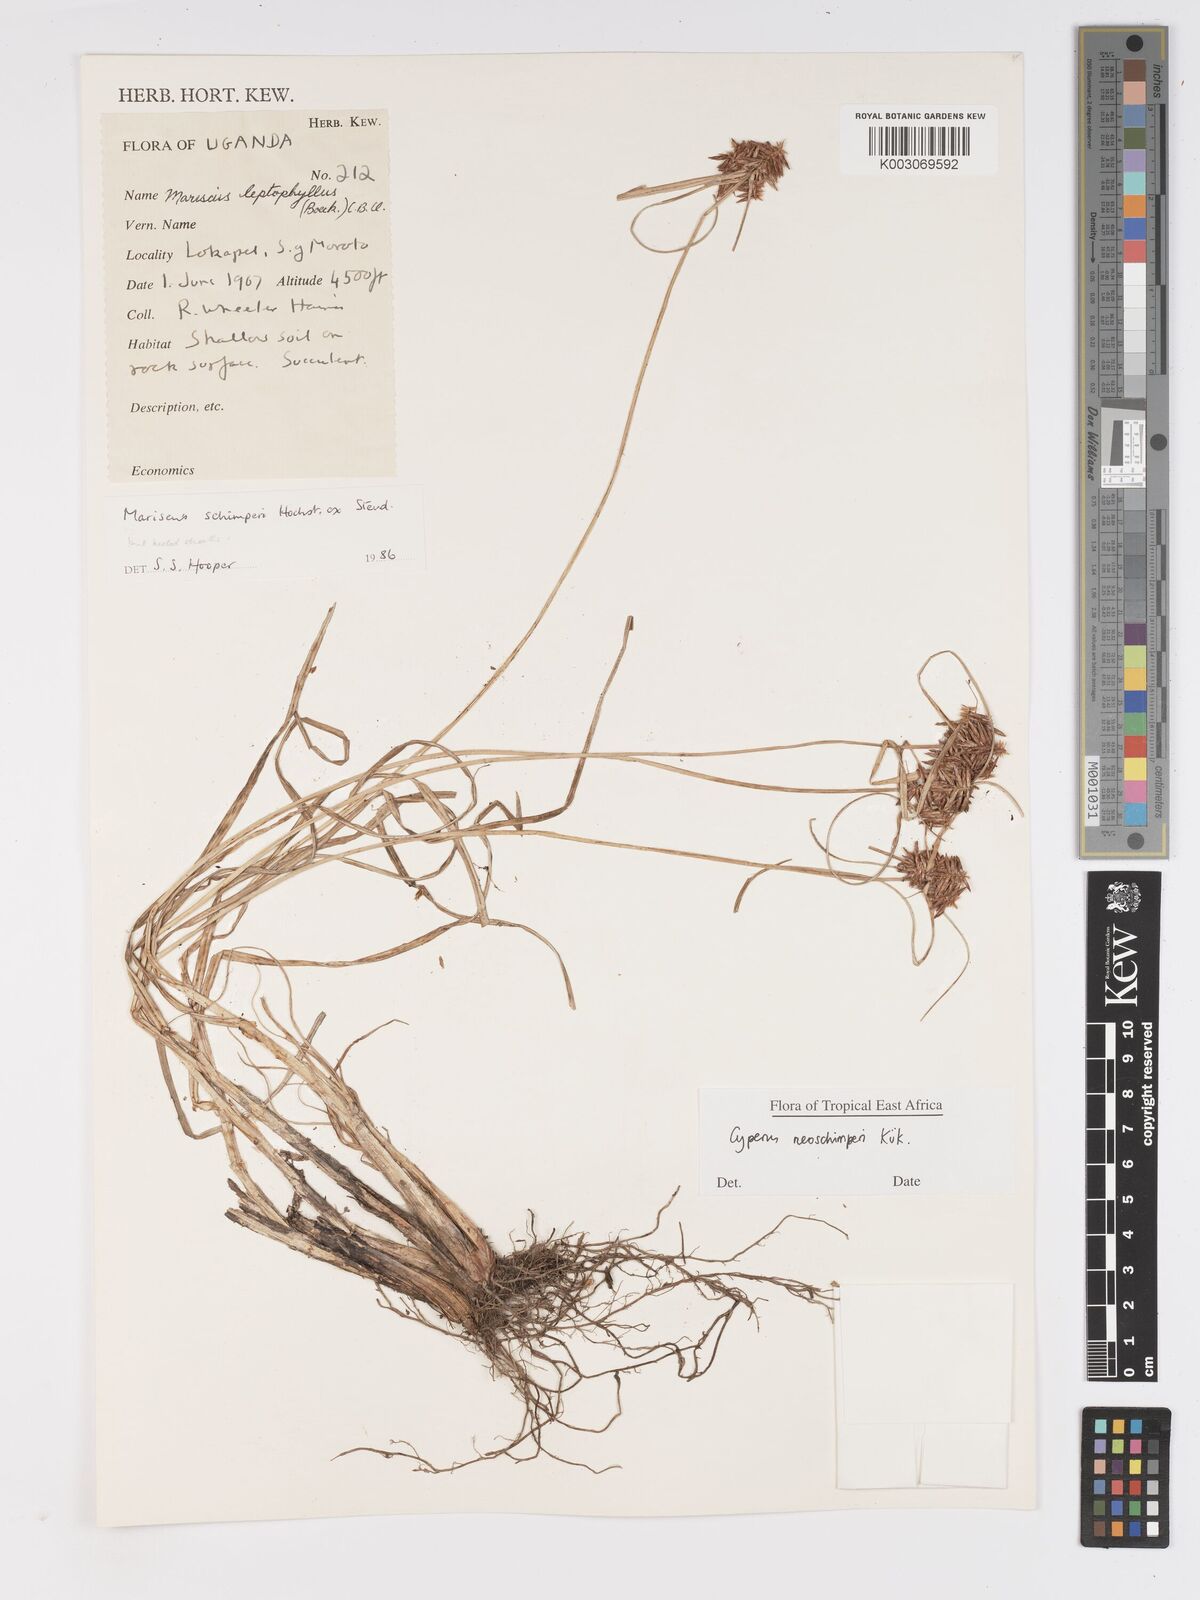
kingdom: Plantae
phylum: Tracheophyta
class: Liliopsida
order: Poales
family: Cyperaceae
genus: Cyperus
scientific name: Cyperus cruentus
